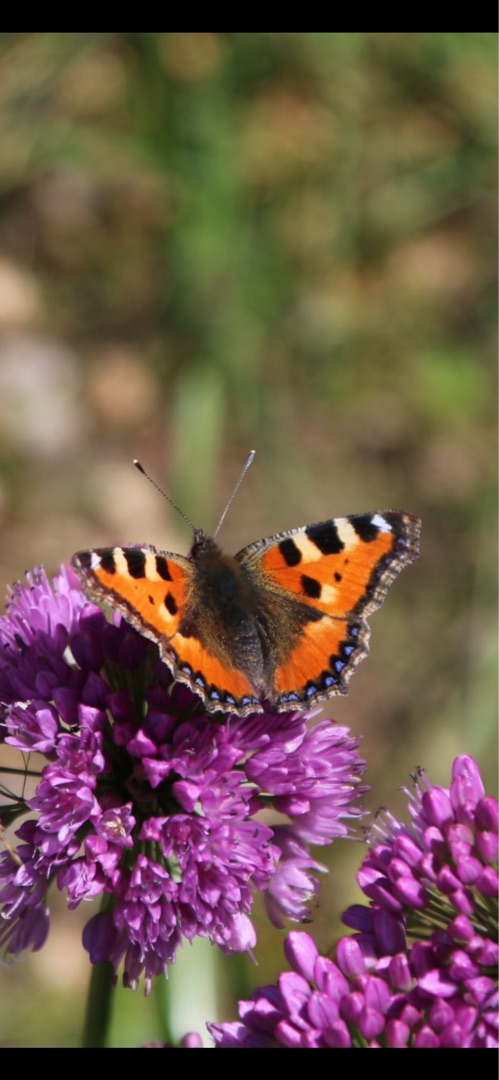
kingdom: Animalia
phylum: Arthropoda
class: Insecta
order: Lepidoptera
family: Nymphalidae
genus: Aglais
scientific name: Aglais urticae
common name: Nældens takvinge
